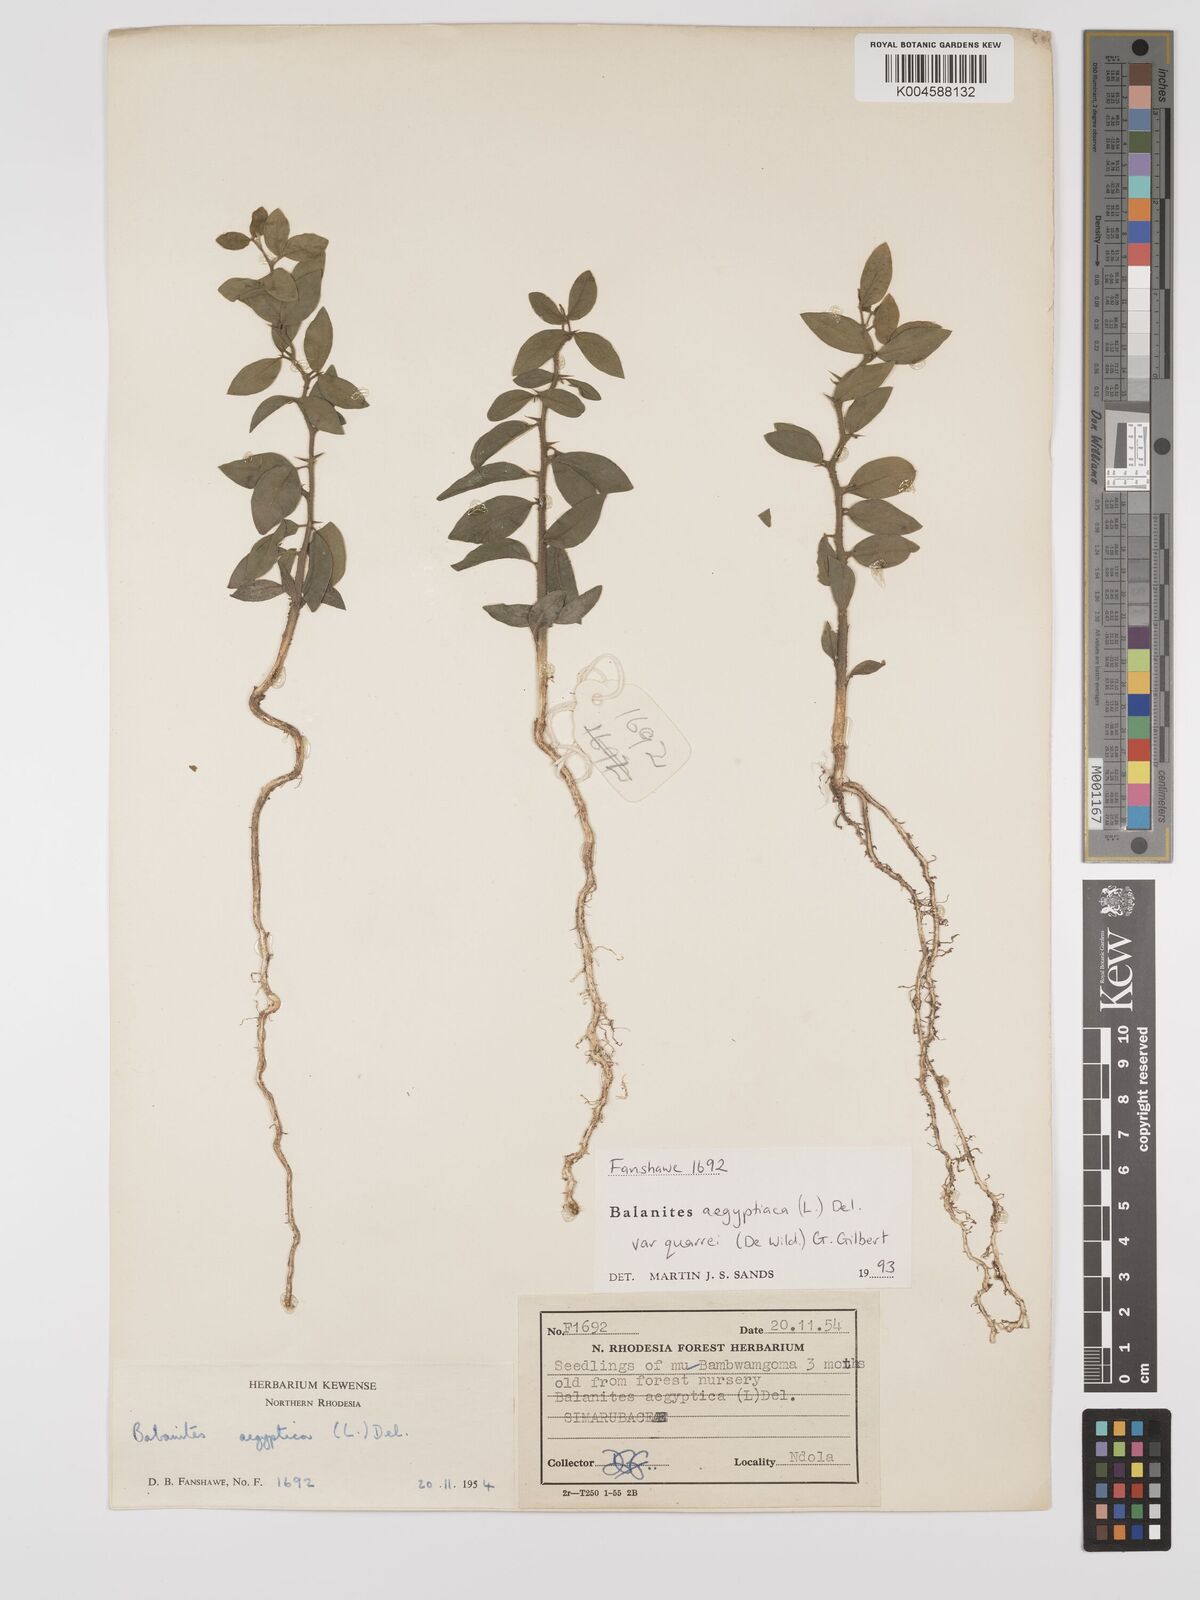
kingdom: Plantae
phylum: Tracheophyta
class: Magnoliopsida
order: Zygophyllales
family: Zygophyllaceae
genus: Balanites
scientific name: Balanites aegyptiaca
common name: Balanites
